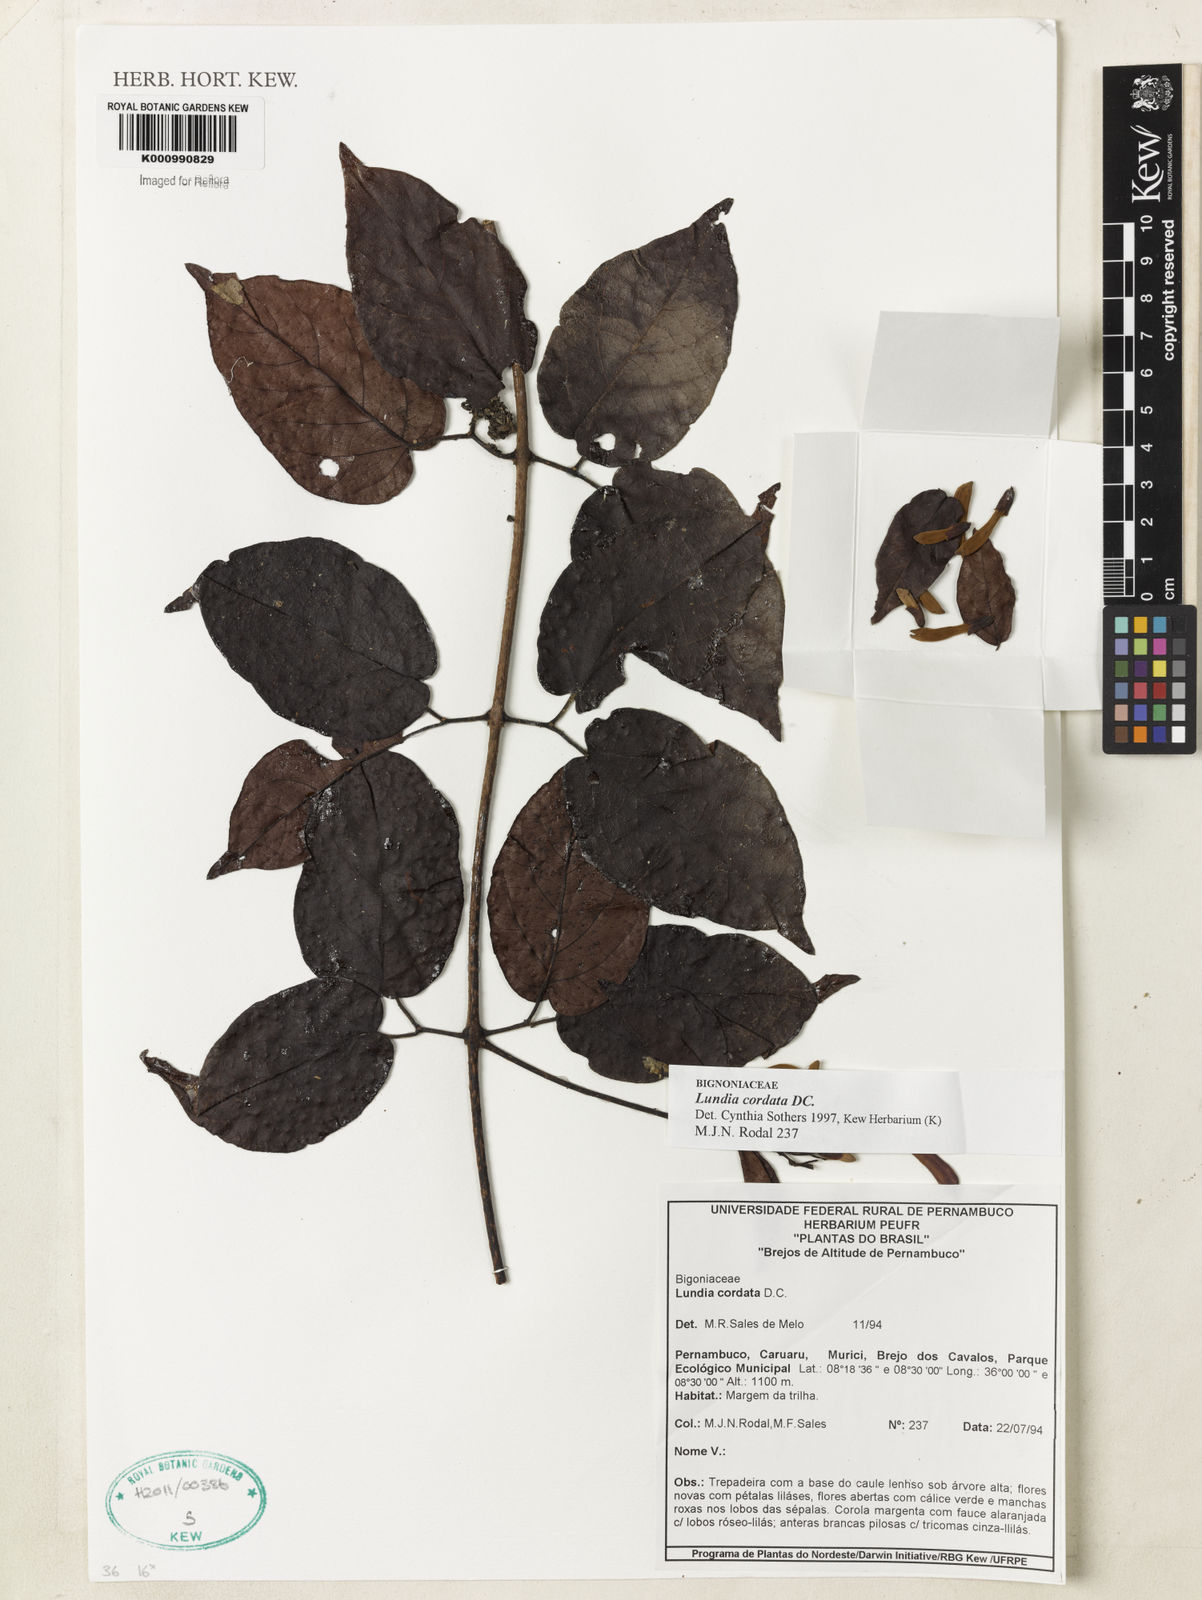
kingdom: Plantae
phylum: Tracheophyta
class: Magnoliopsida
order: Lamiales
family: Bignoniaceae
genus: Lundia
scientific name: Lundia corymbifera
